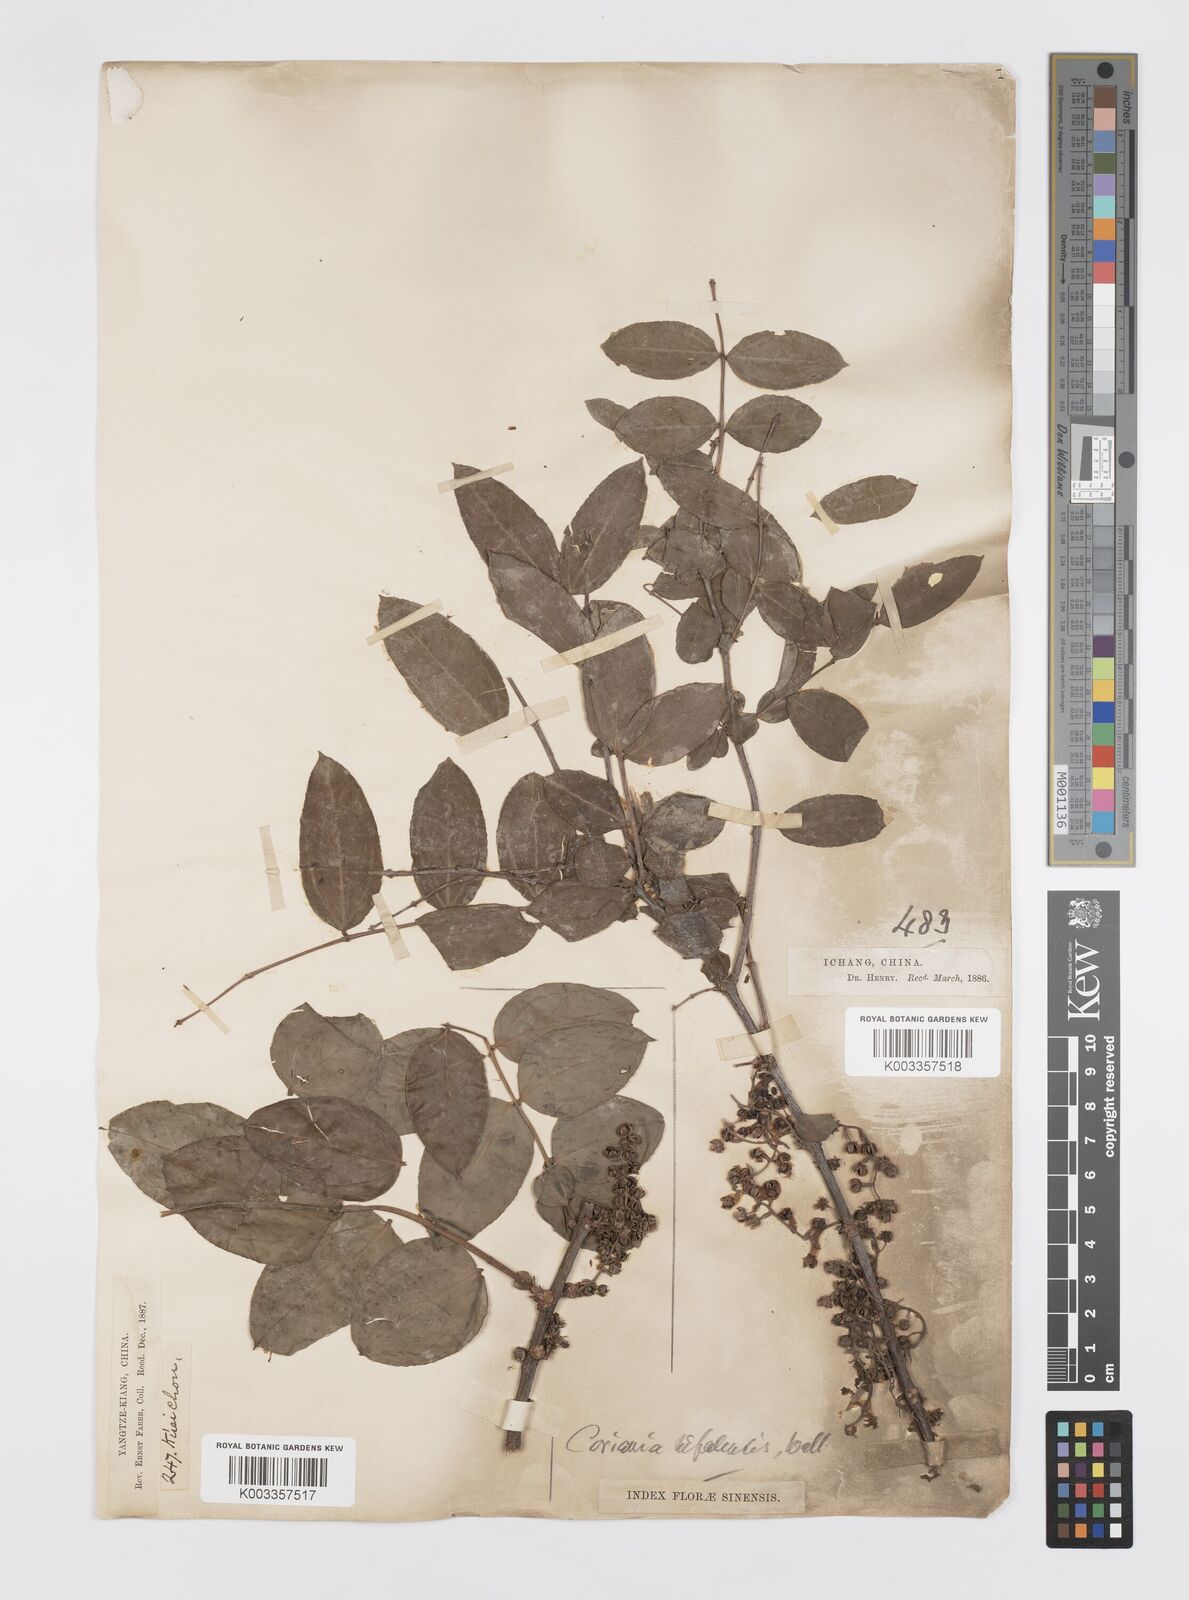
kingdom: Plantae
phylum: Tracheophyta
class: Magnoliopsida
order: Cucurbitales
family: Coriariaceae
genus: Coriaria
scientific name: Coriaria napalensis
